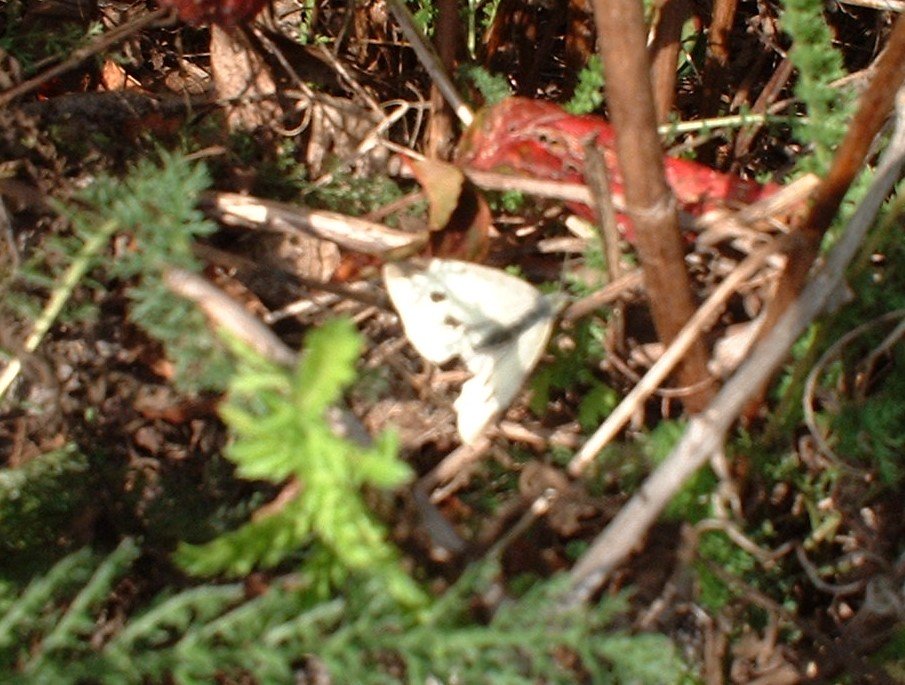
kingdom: Animalia
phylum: Arthropoda
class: Insecta
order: Lepidoptera
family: Pieridae
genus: Pieris
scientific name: Pieris rapae
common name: Cabbage White
